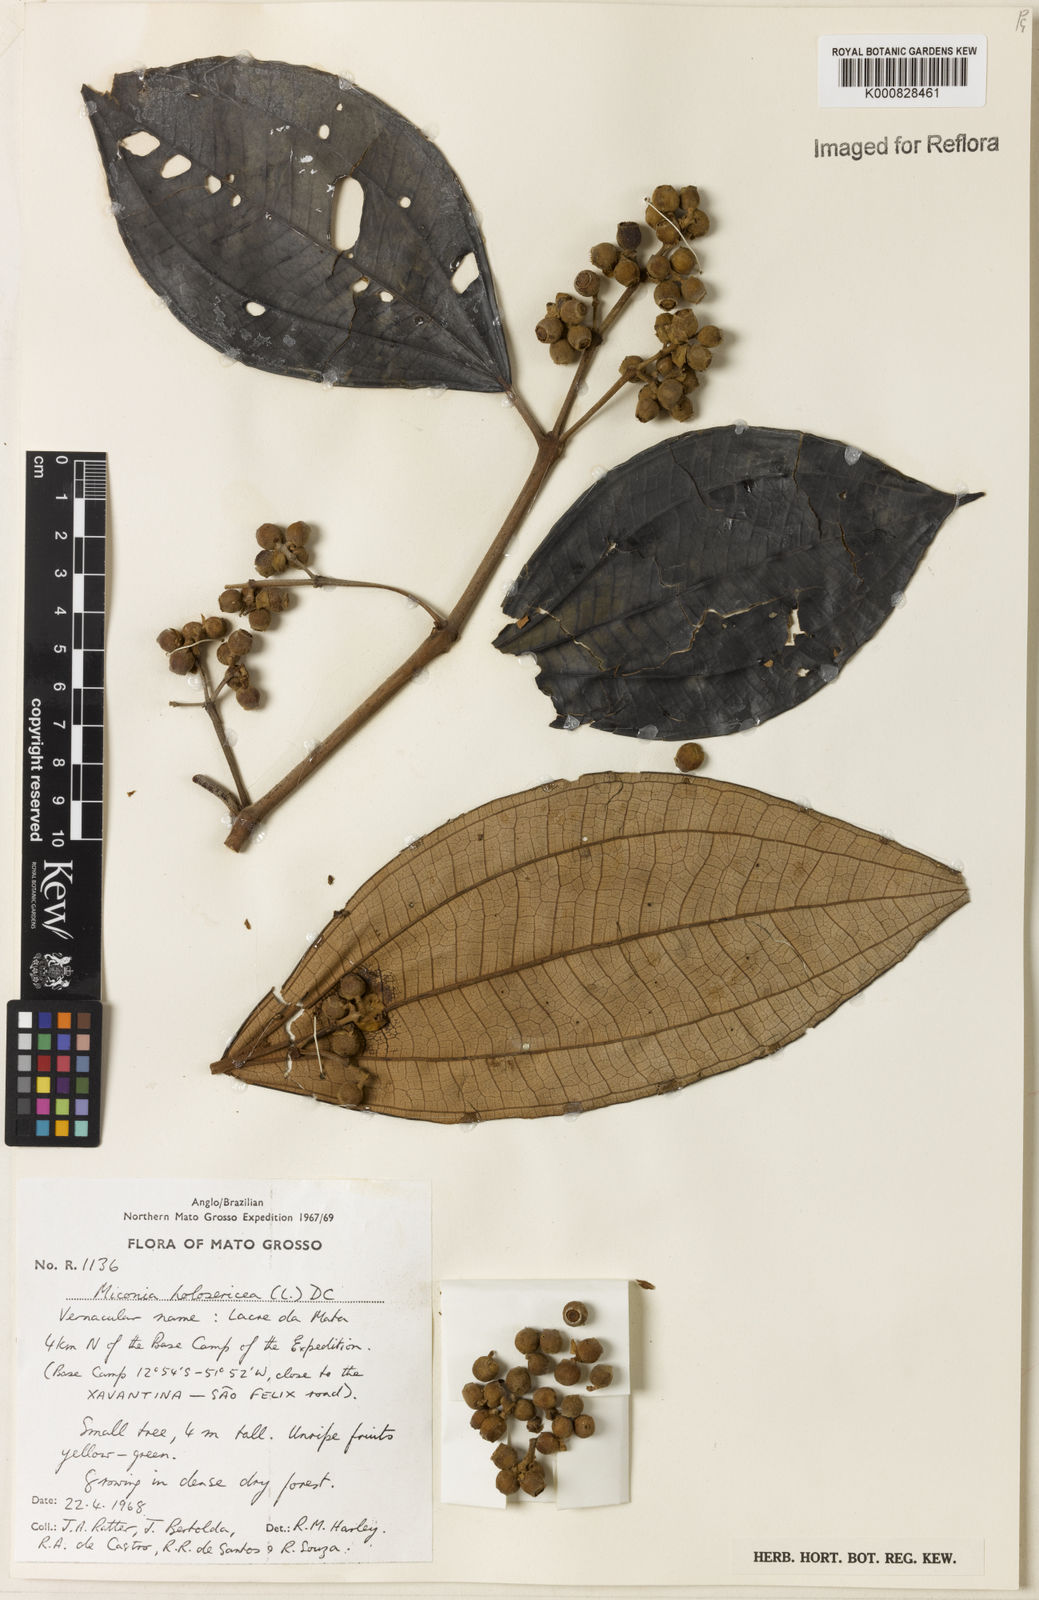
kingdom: Plantae
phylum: Tracheophyta
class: Magnoliopsida
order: Myrtales
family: Melastomataceae
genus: Miconia
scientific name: Miconia holosericea
